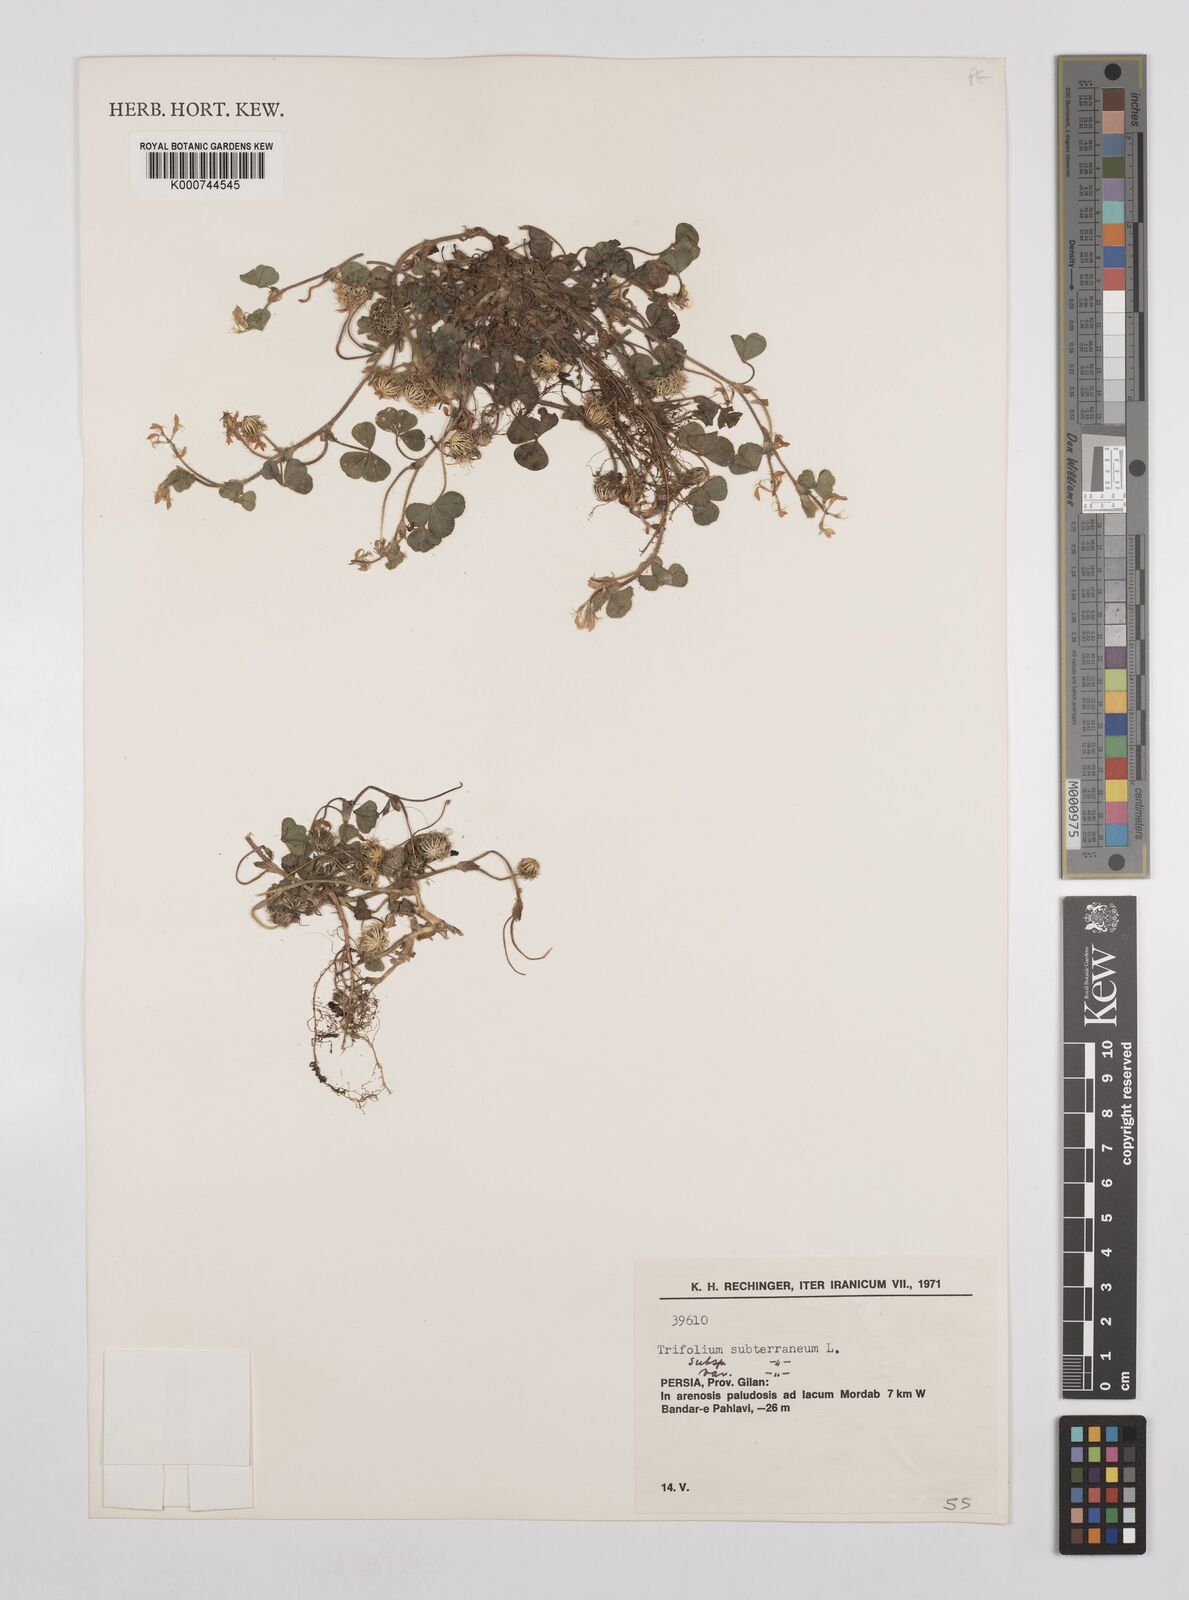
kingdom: Plantae
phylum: Tracheophyta
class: Magnoliopsida
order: Fabales
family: Fabaceae
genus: Trifolium
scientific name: Trifolium subterraneum
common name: Subterranean clover
